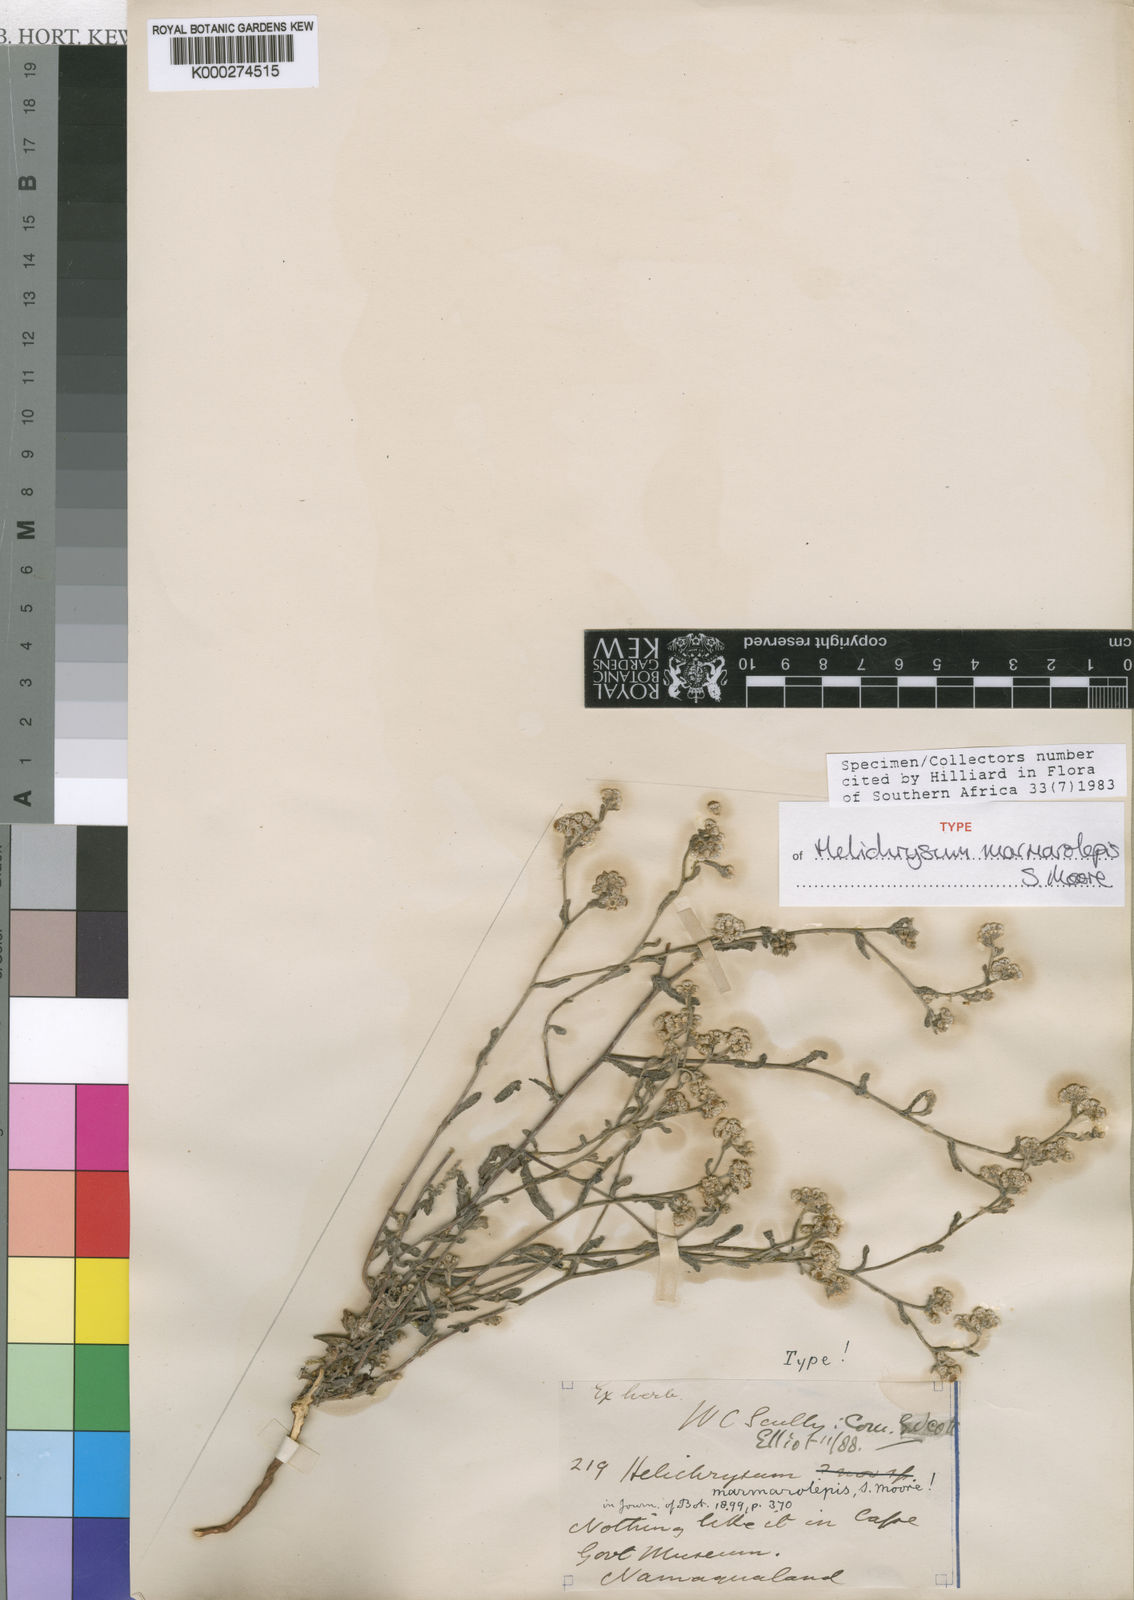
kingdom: Plantae
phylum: Tracheophyta
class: Magnoliopsida
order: Asterales
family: Asteraceae
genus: Helichrysum
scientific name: Helichrysum marmarolepis
